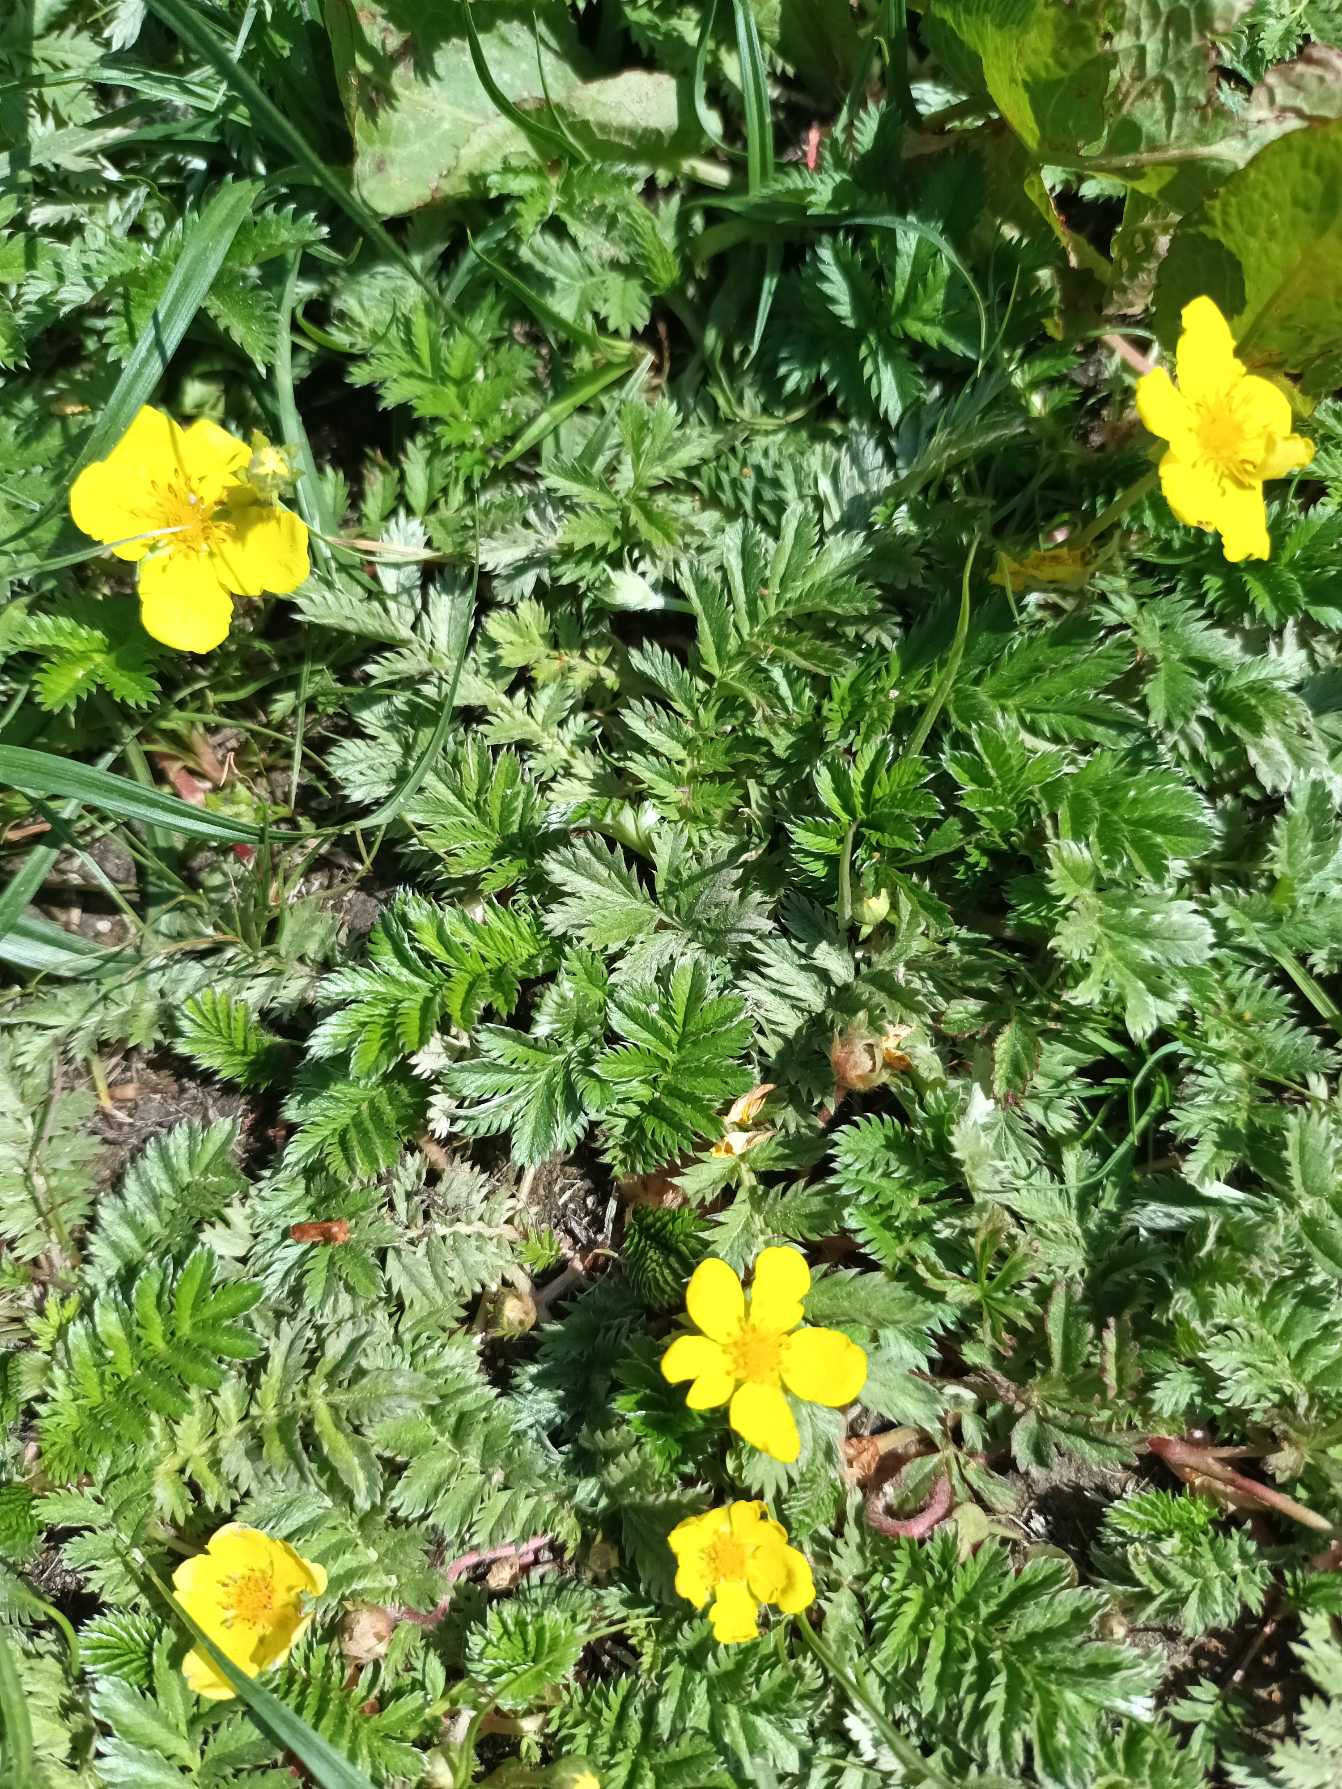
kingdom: Plantae
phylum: Tracheophyta
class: Magnoliopsida
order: Rosales
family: Rosaceae
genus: Argentina
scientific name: Argentina anserina
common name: Gåsepotentil
